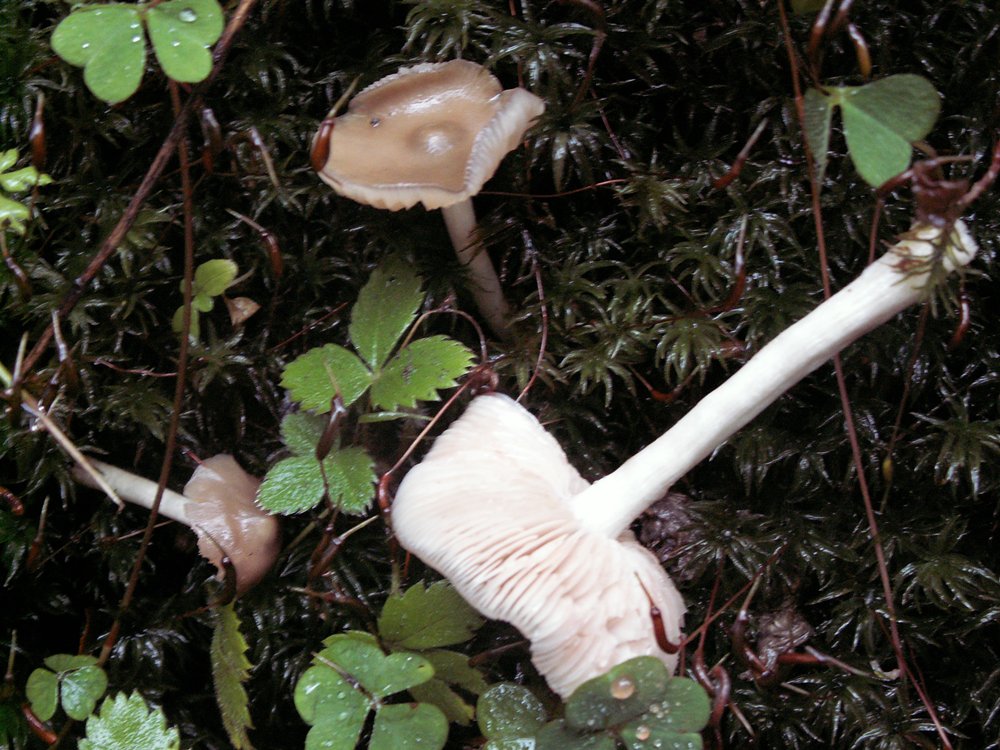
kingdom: Fungi
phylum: Basidiomycota
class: Agaricomycetes
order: Agaricales
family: Entolomataceae
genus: Entoloma
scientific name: Entoloma sericatum
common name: rank rødblad
